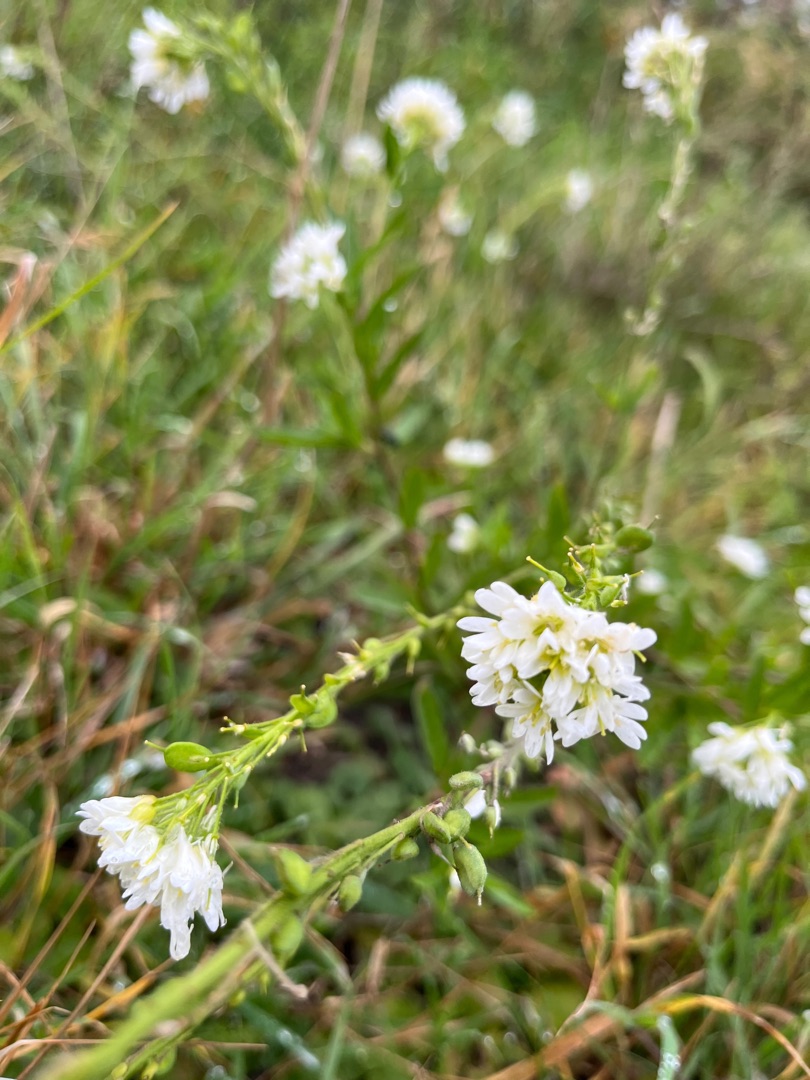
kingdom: Plantae
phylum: Tracheophyta
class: Magnoliopsida
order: Brassicales
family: Brassicaceae
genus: Berteroa
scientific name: Berteroa incana
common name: Kløvplade
